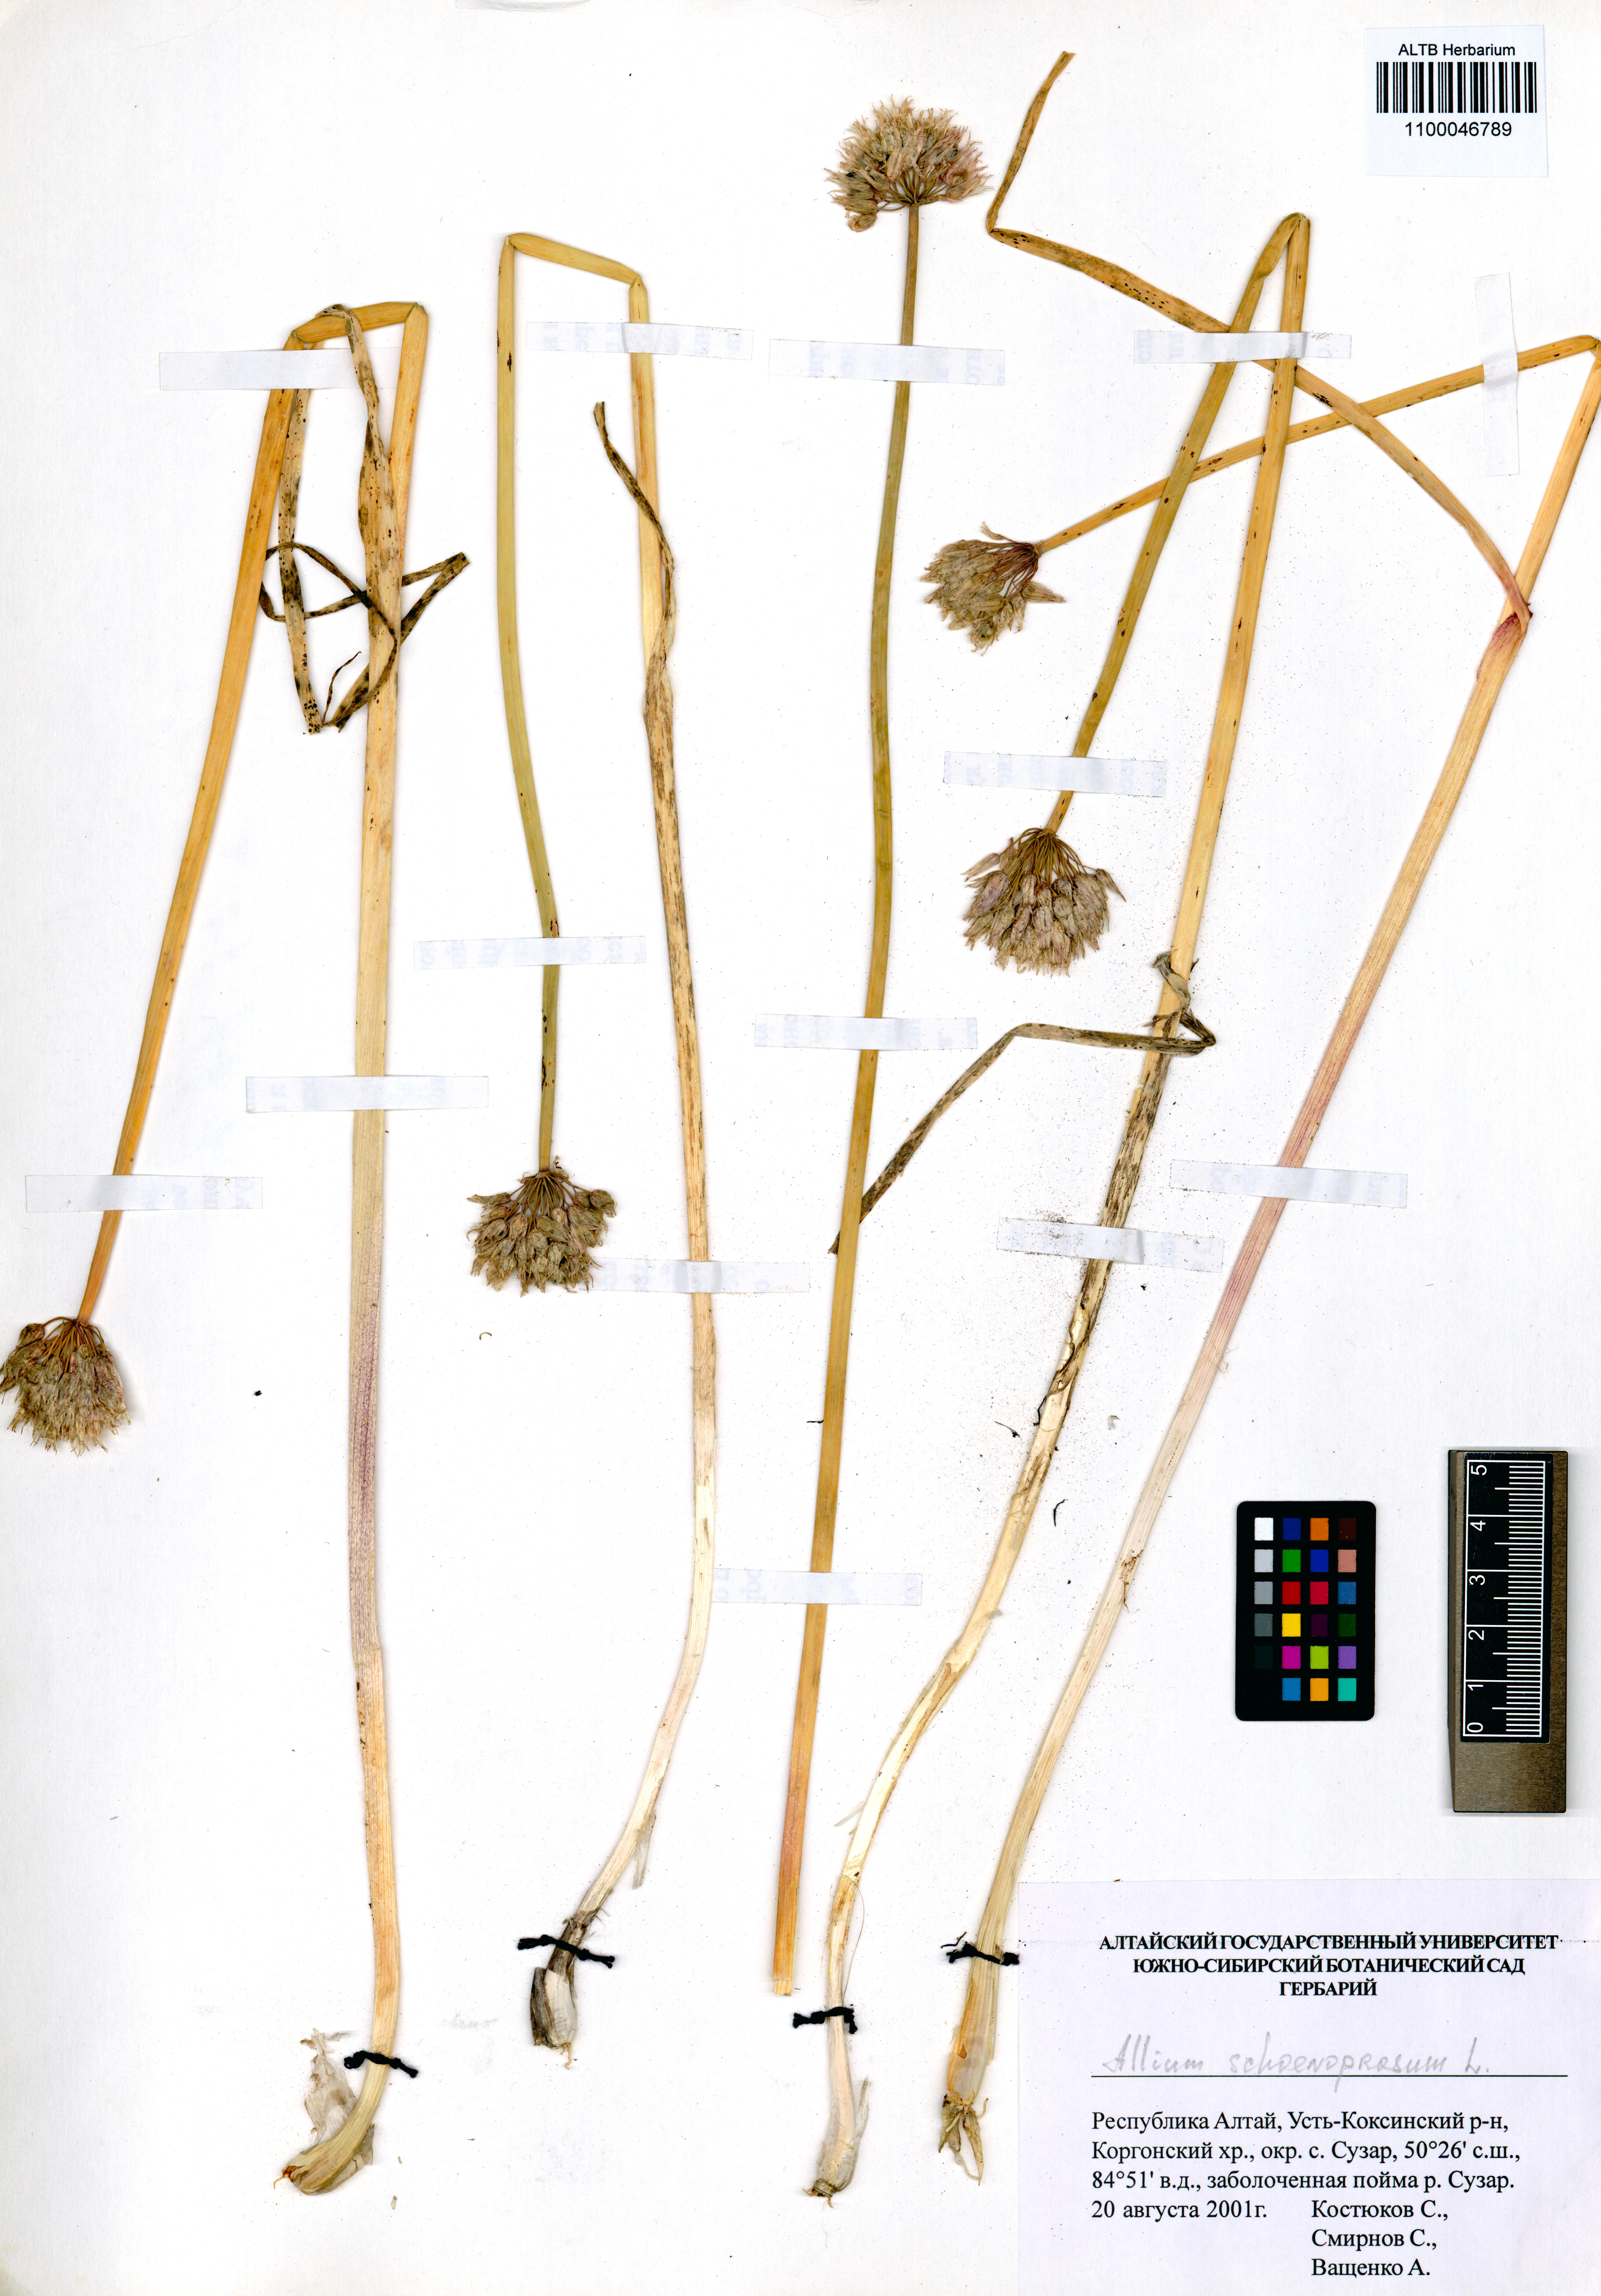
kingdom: Plantae
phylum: Tracheophyta
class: Liliopsida
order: Asparagales
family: Amaryllidaceae
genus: Allium
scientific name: Allium schoenoprasum
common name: Chives
